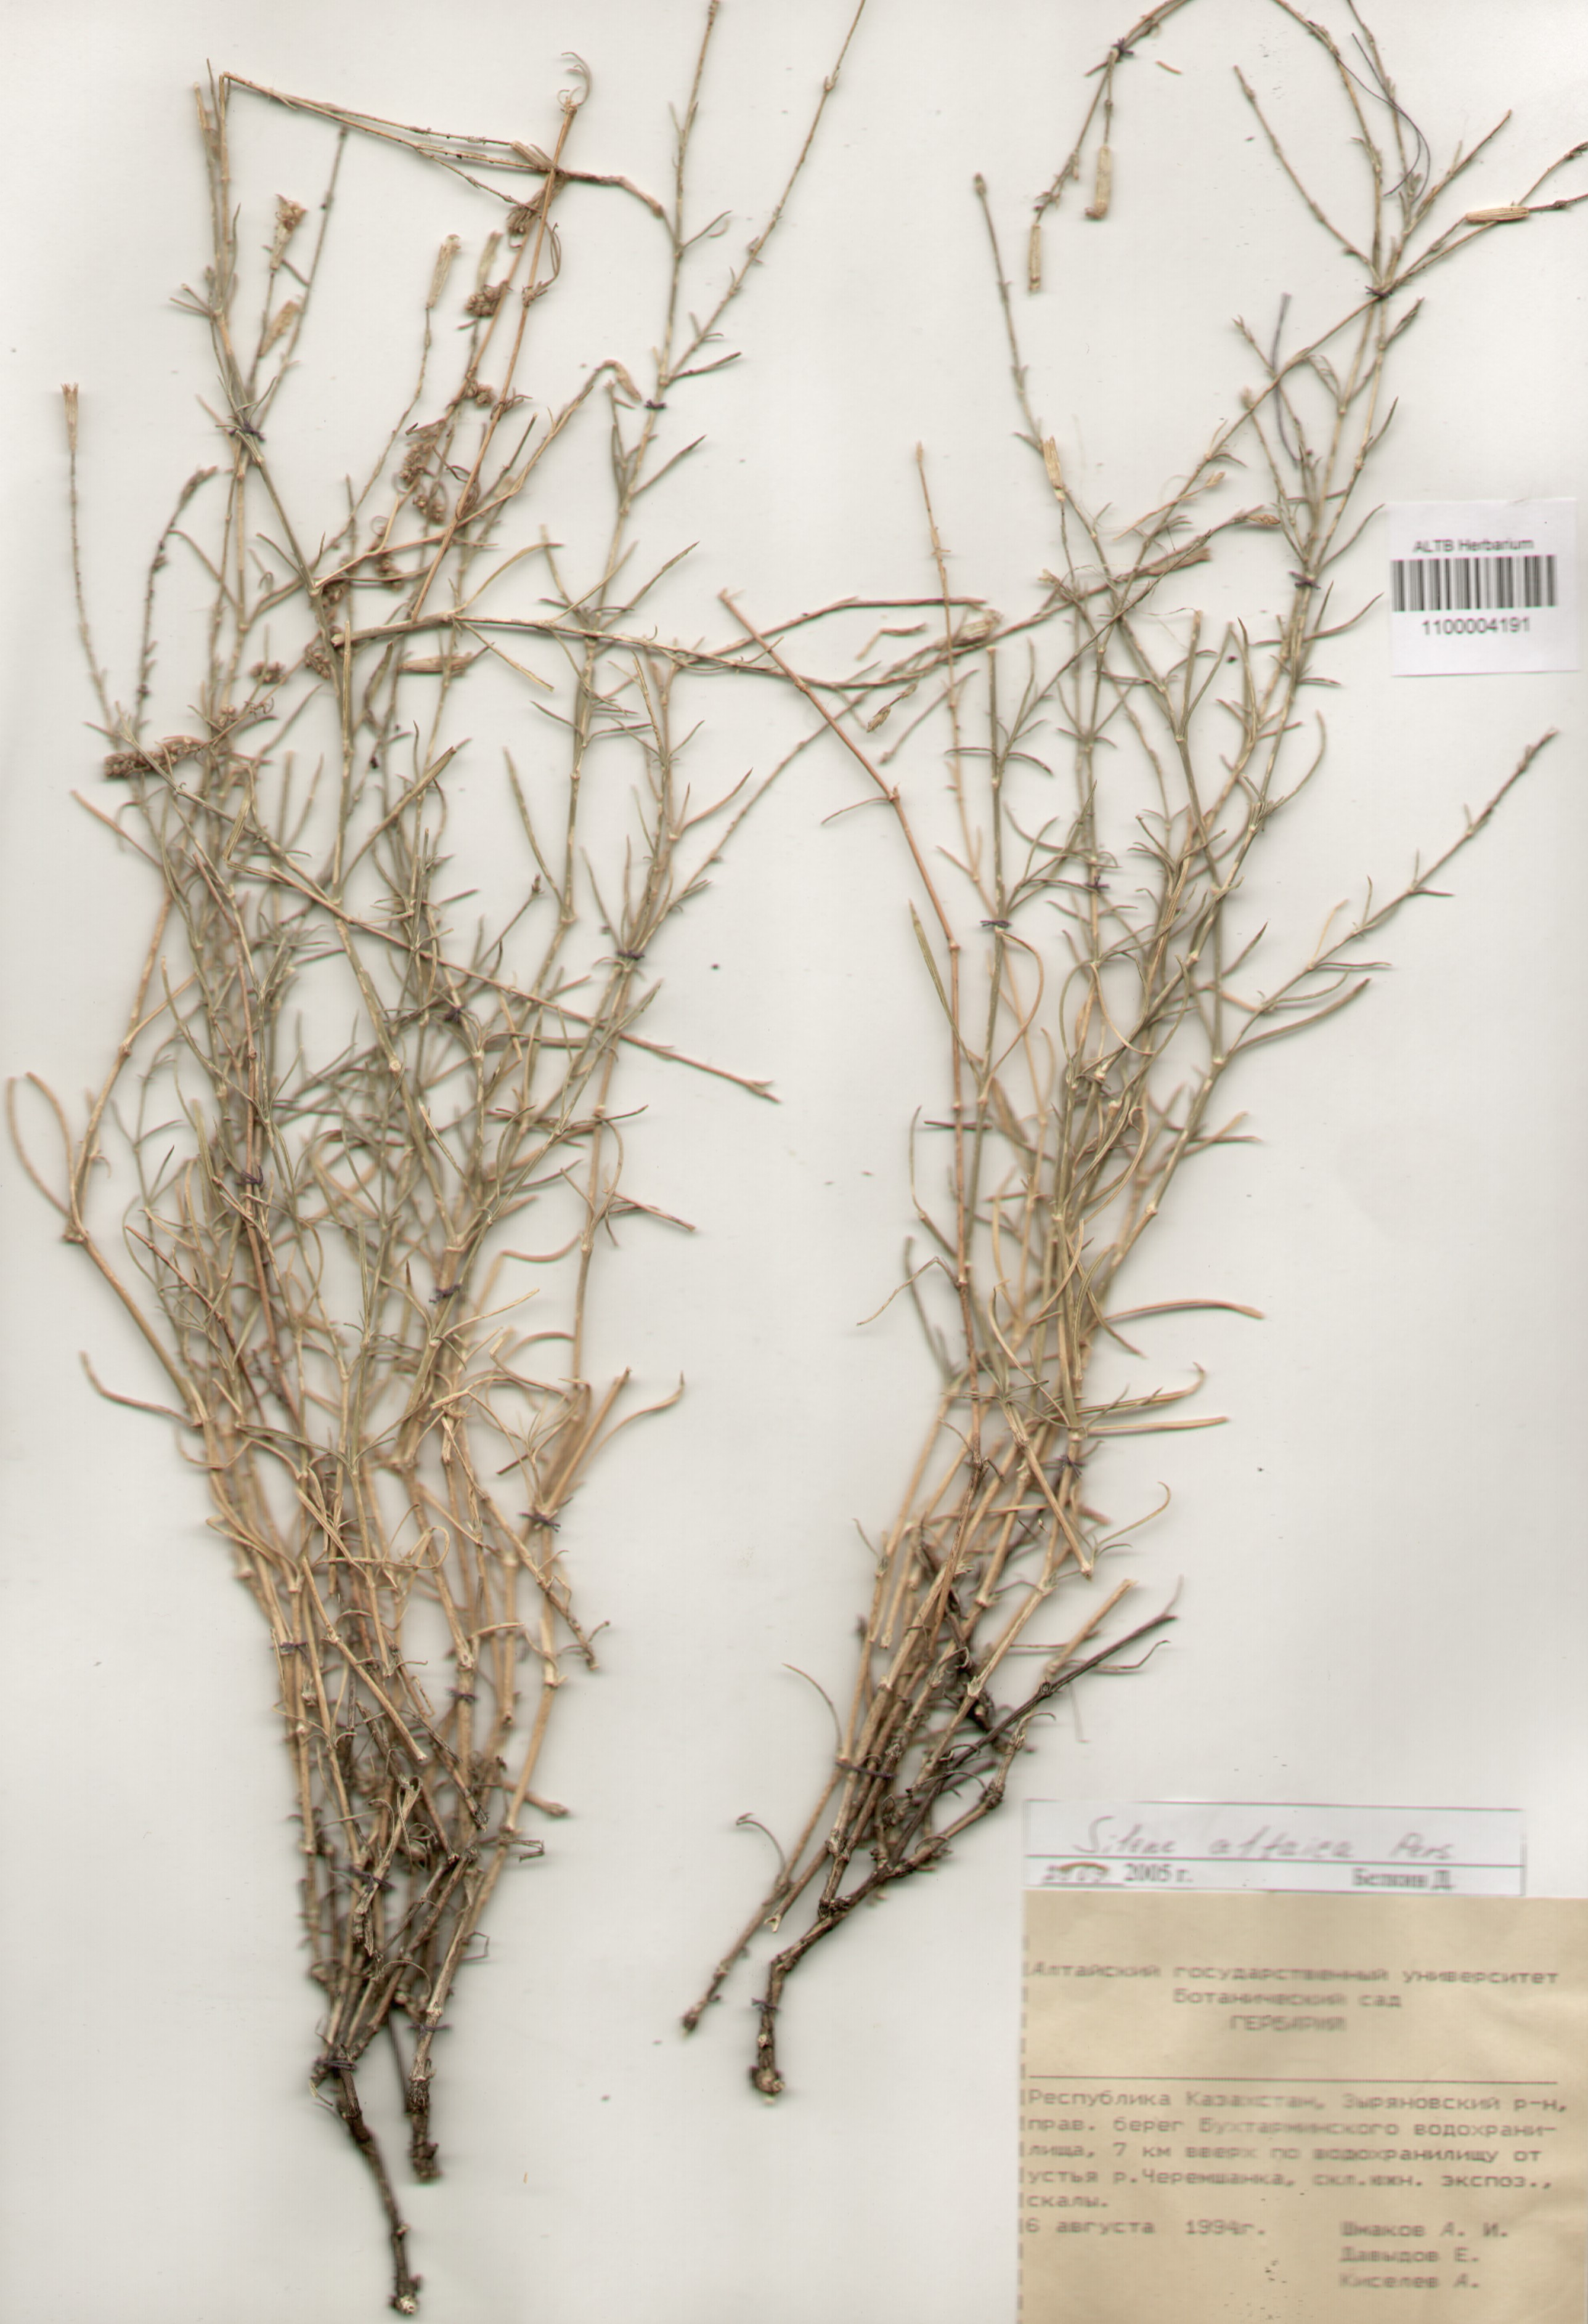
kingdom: Plantae
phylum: Tracheophyta
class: Magnoliopsida
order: Caryophyllales
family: Caryophyllaceae
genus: Silene
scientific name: Silene altaica
